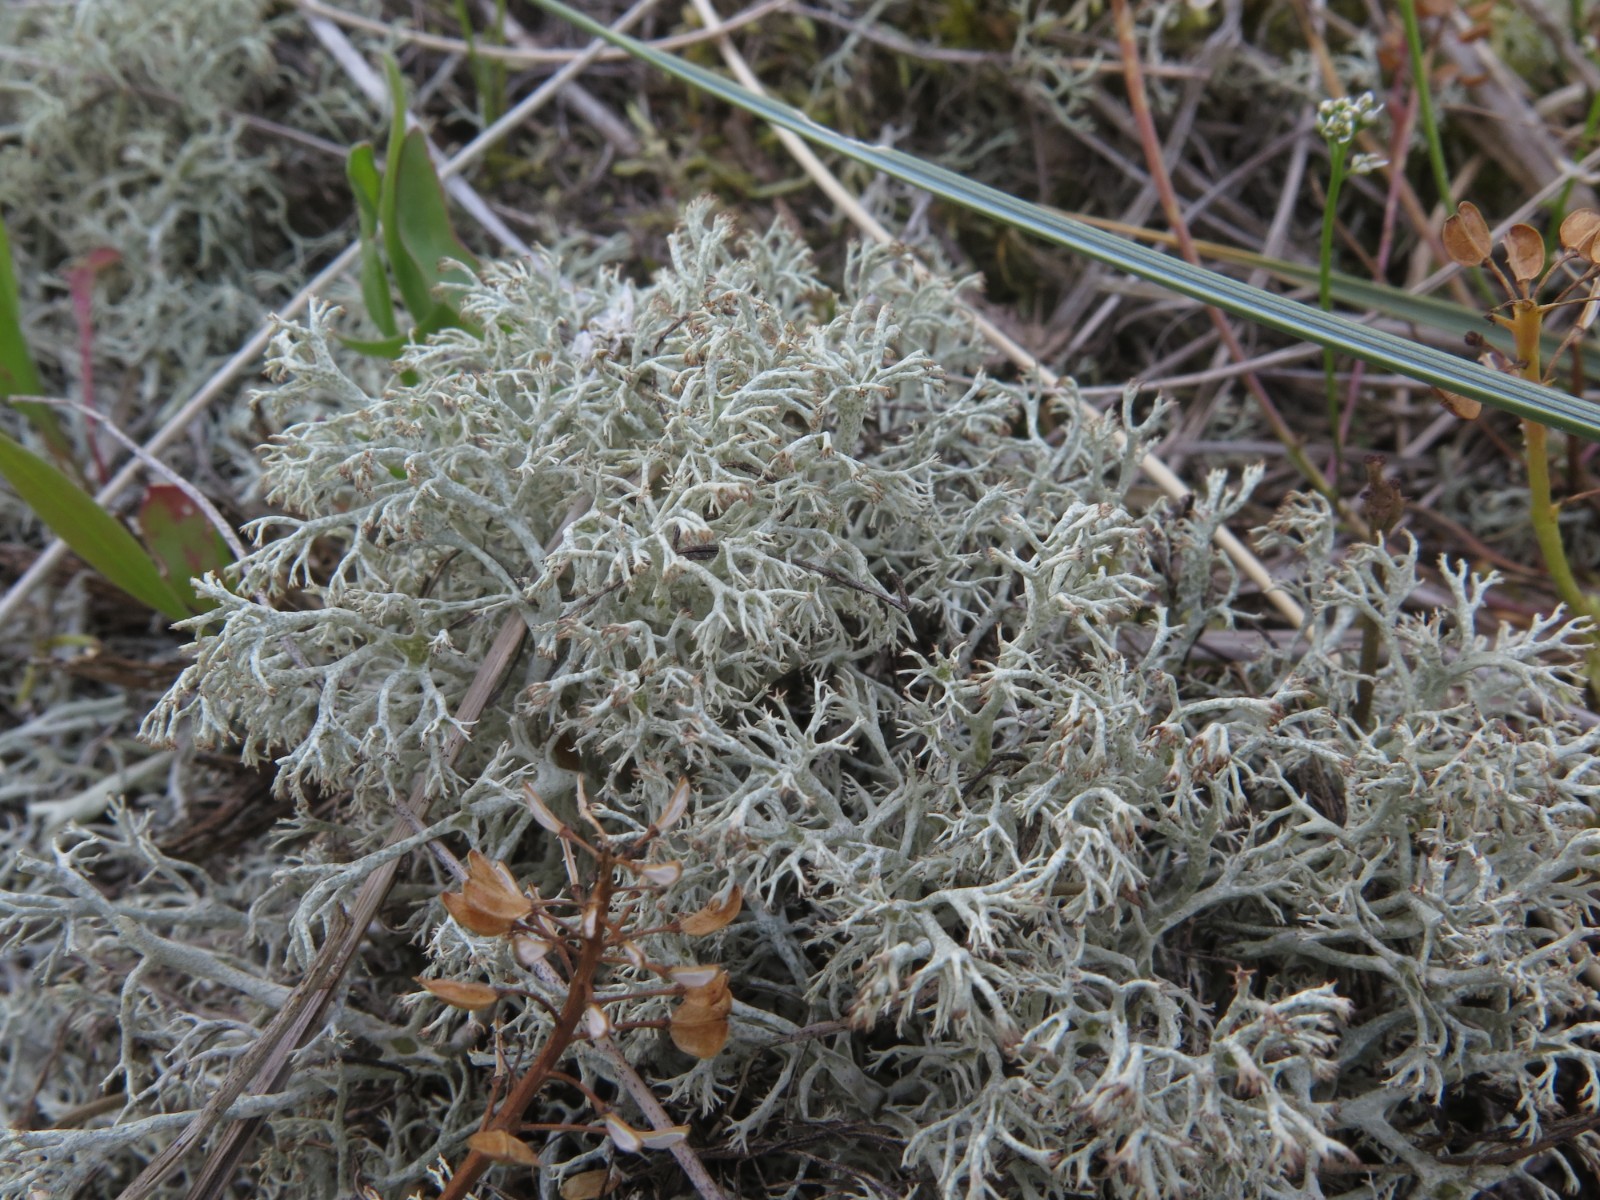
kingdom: Fungi
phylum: Ascomycota
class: Lecanoromycetes
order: Lecanorales
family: Cladoniaceae
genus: Cladonia
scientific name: Cladonia ciliata
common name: spinkel rensdyrlav
